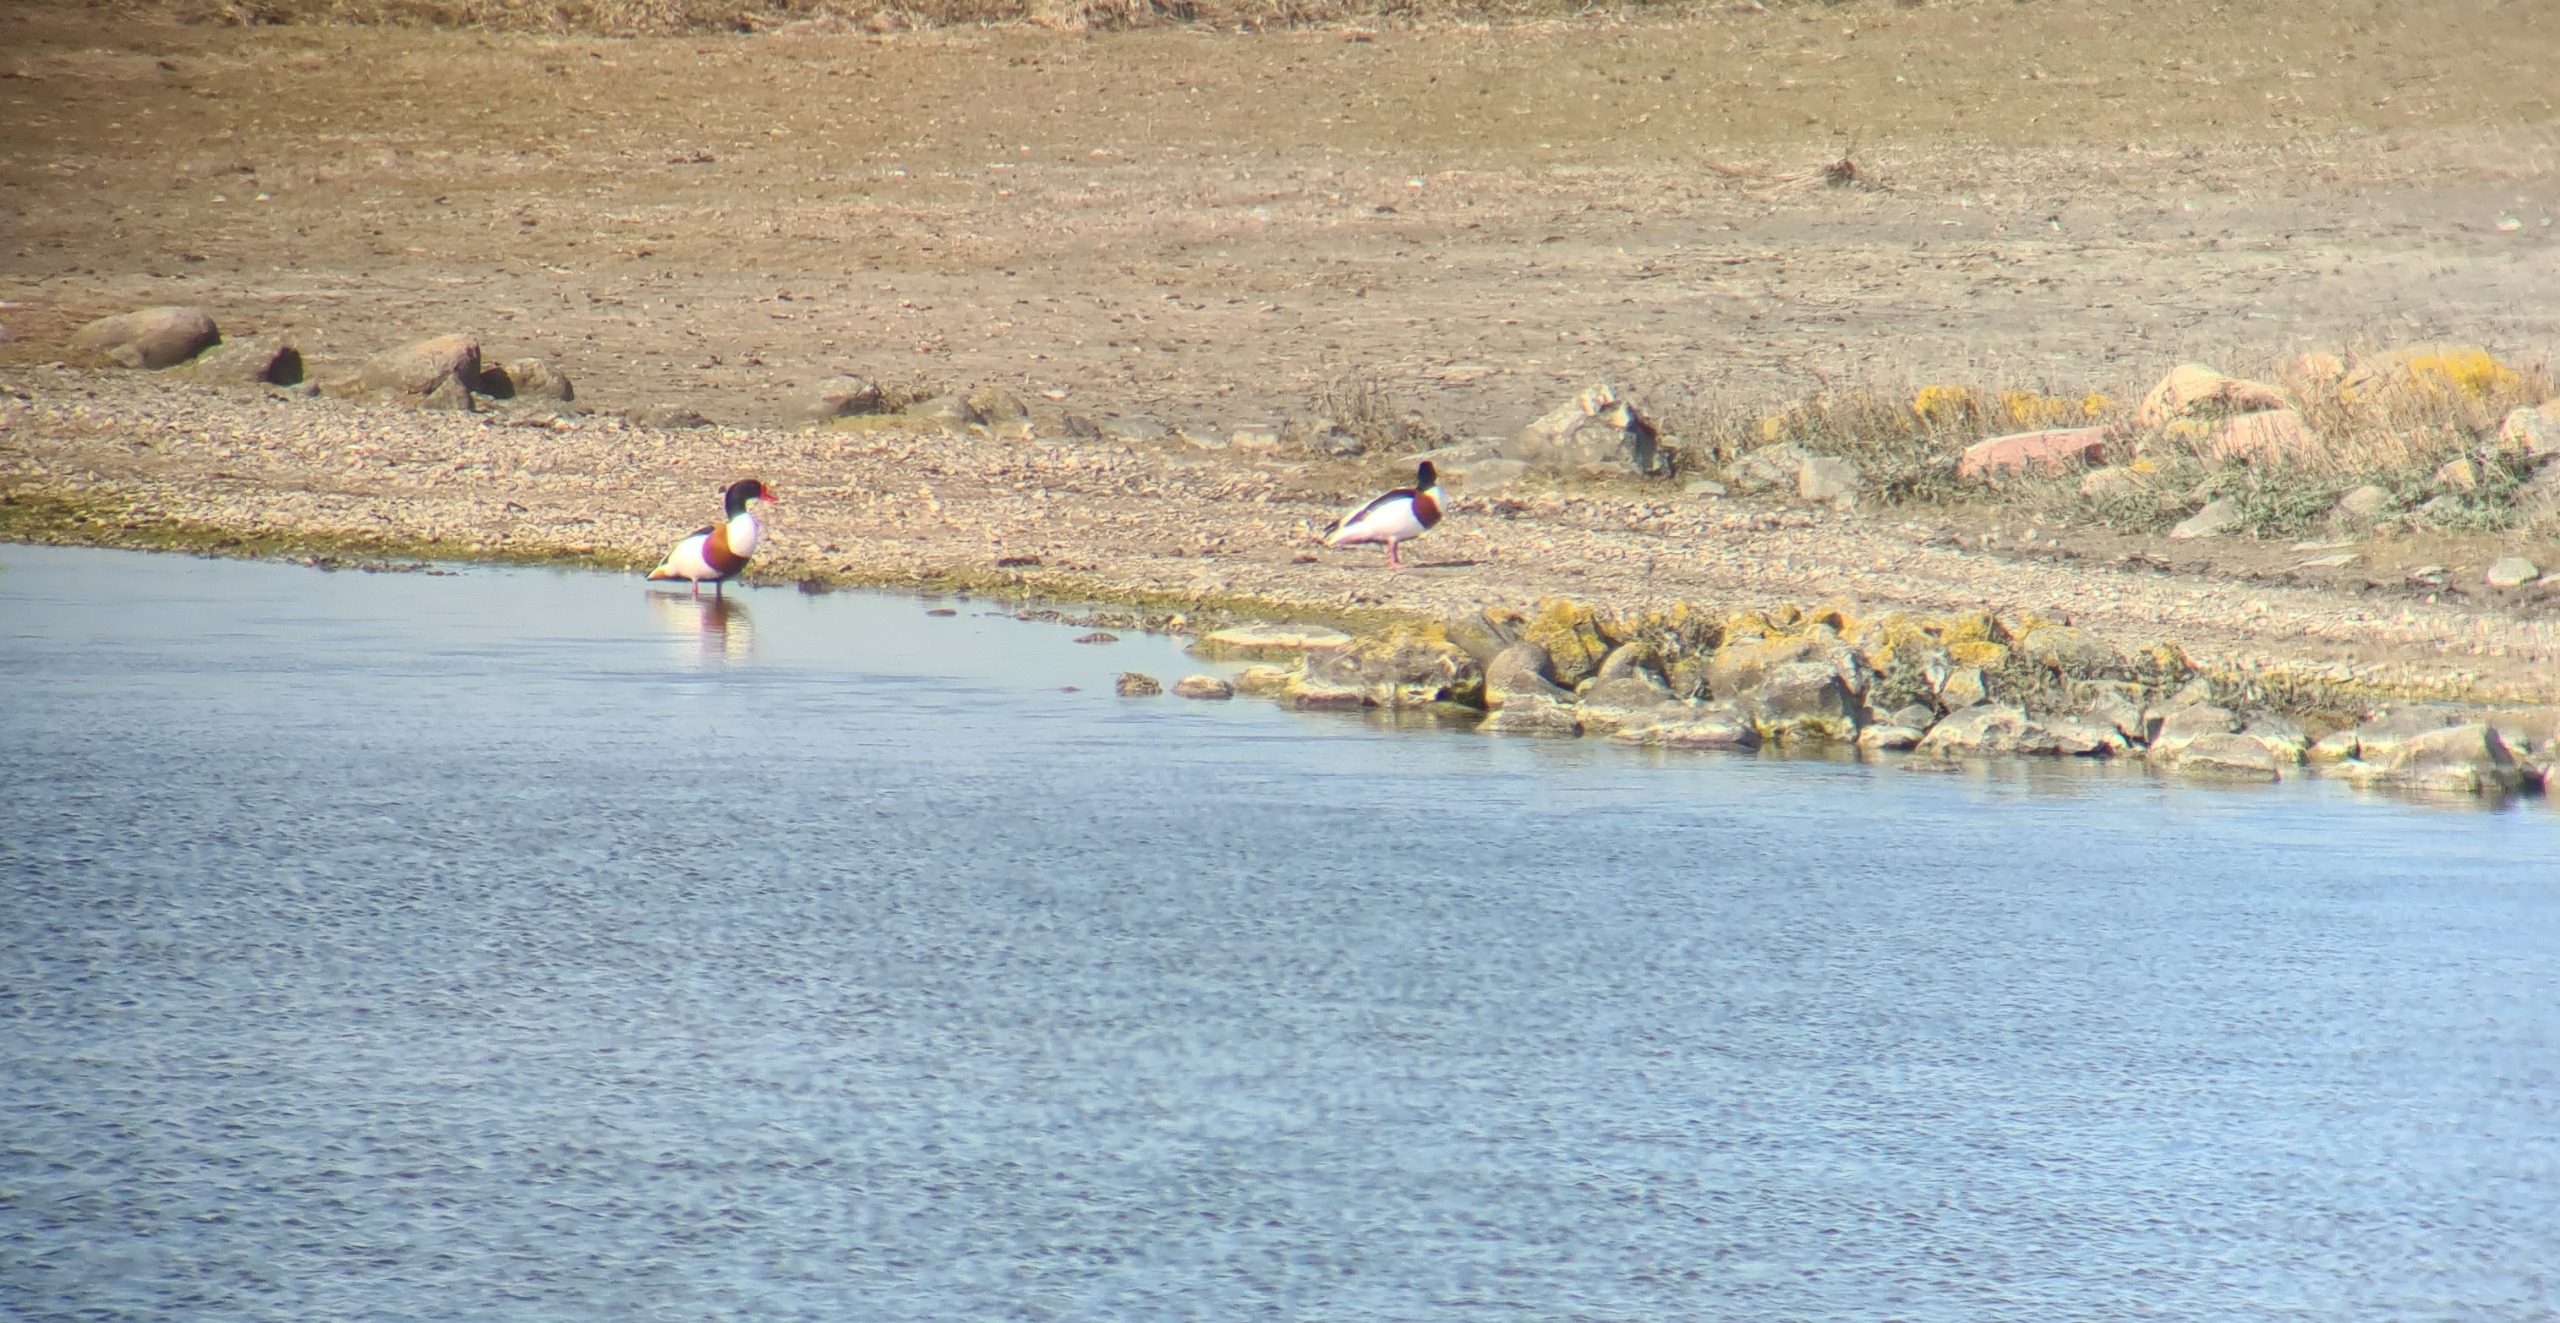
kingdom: Animalia
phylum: Chordata
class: Aves
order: Anseriformes
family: Anatidae
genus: Tadorna
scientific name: Tadorna tadorna
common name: Gravand
